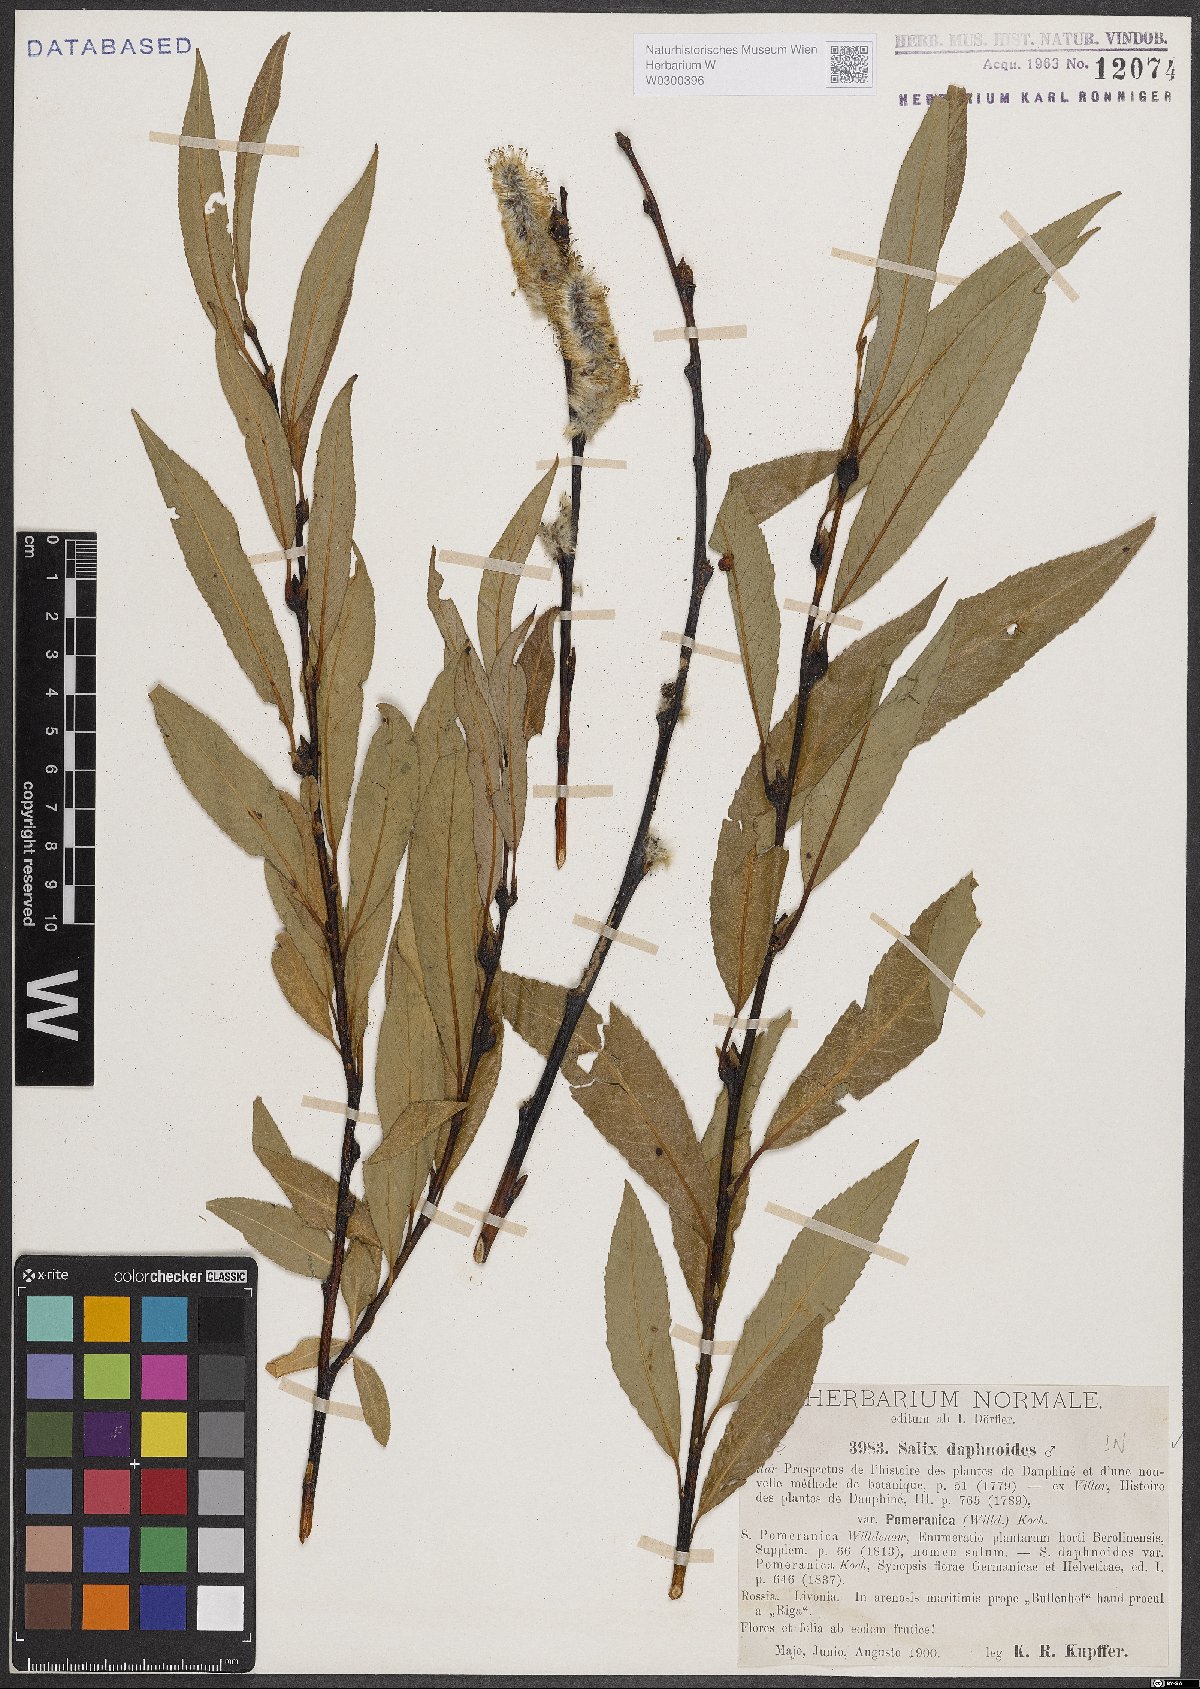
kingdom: Plantae
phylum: Tracheophyta
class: Magnoliopsida
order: Malpighiales
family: Salicaceae
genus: Salix
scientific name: Salix daphnoides
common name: European violet-willow
